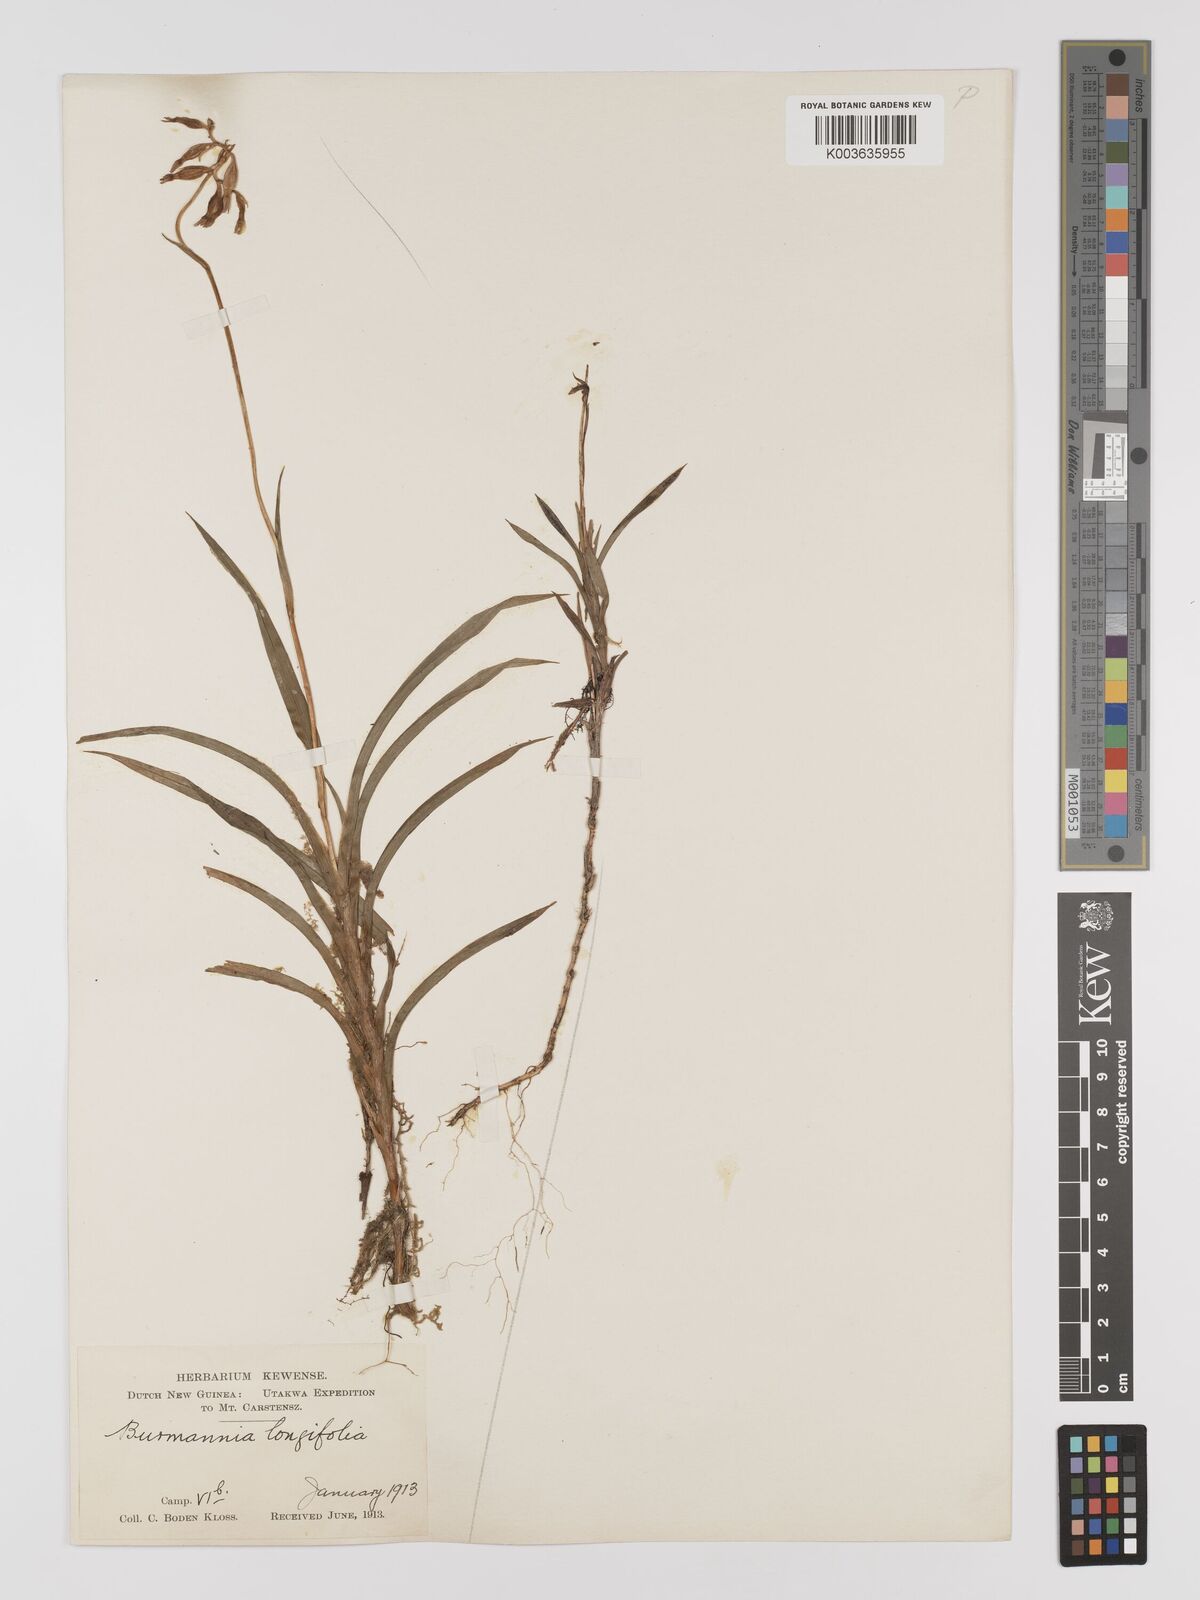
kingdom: Plantae
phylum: Tracheophyta
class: Liliopsida
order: Dioscoreales
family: Burmanniaceae
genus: Burmannia
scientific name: Burmannia longifolia
